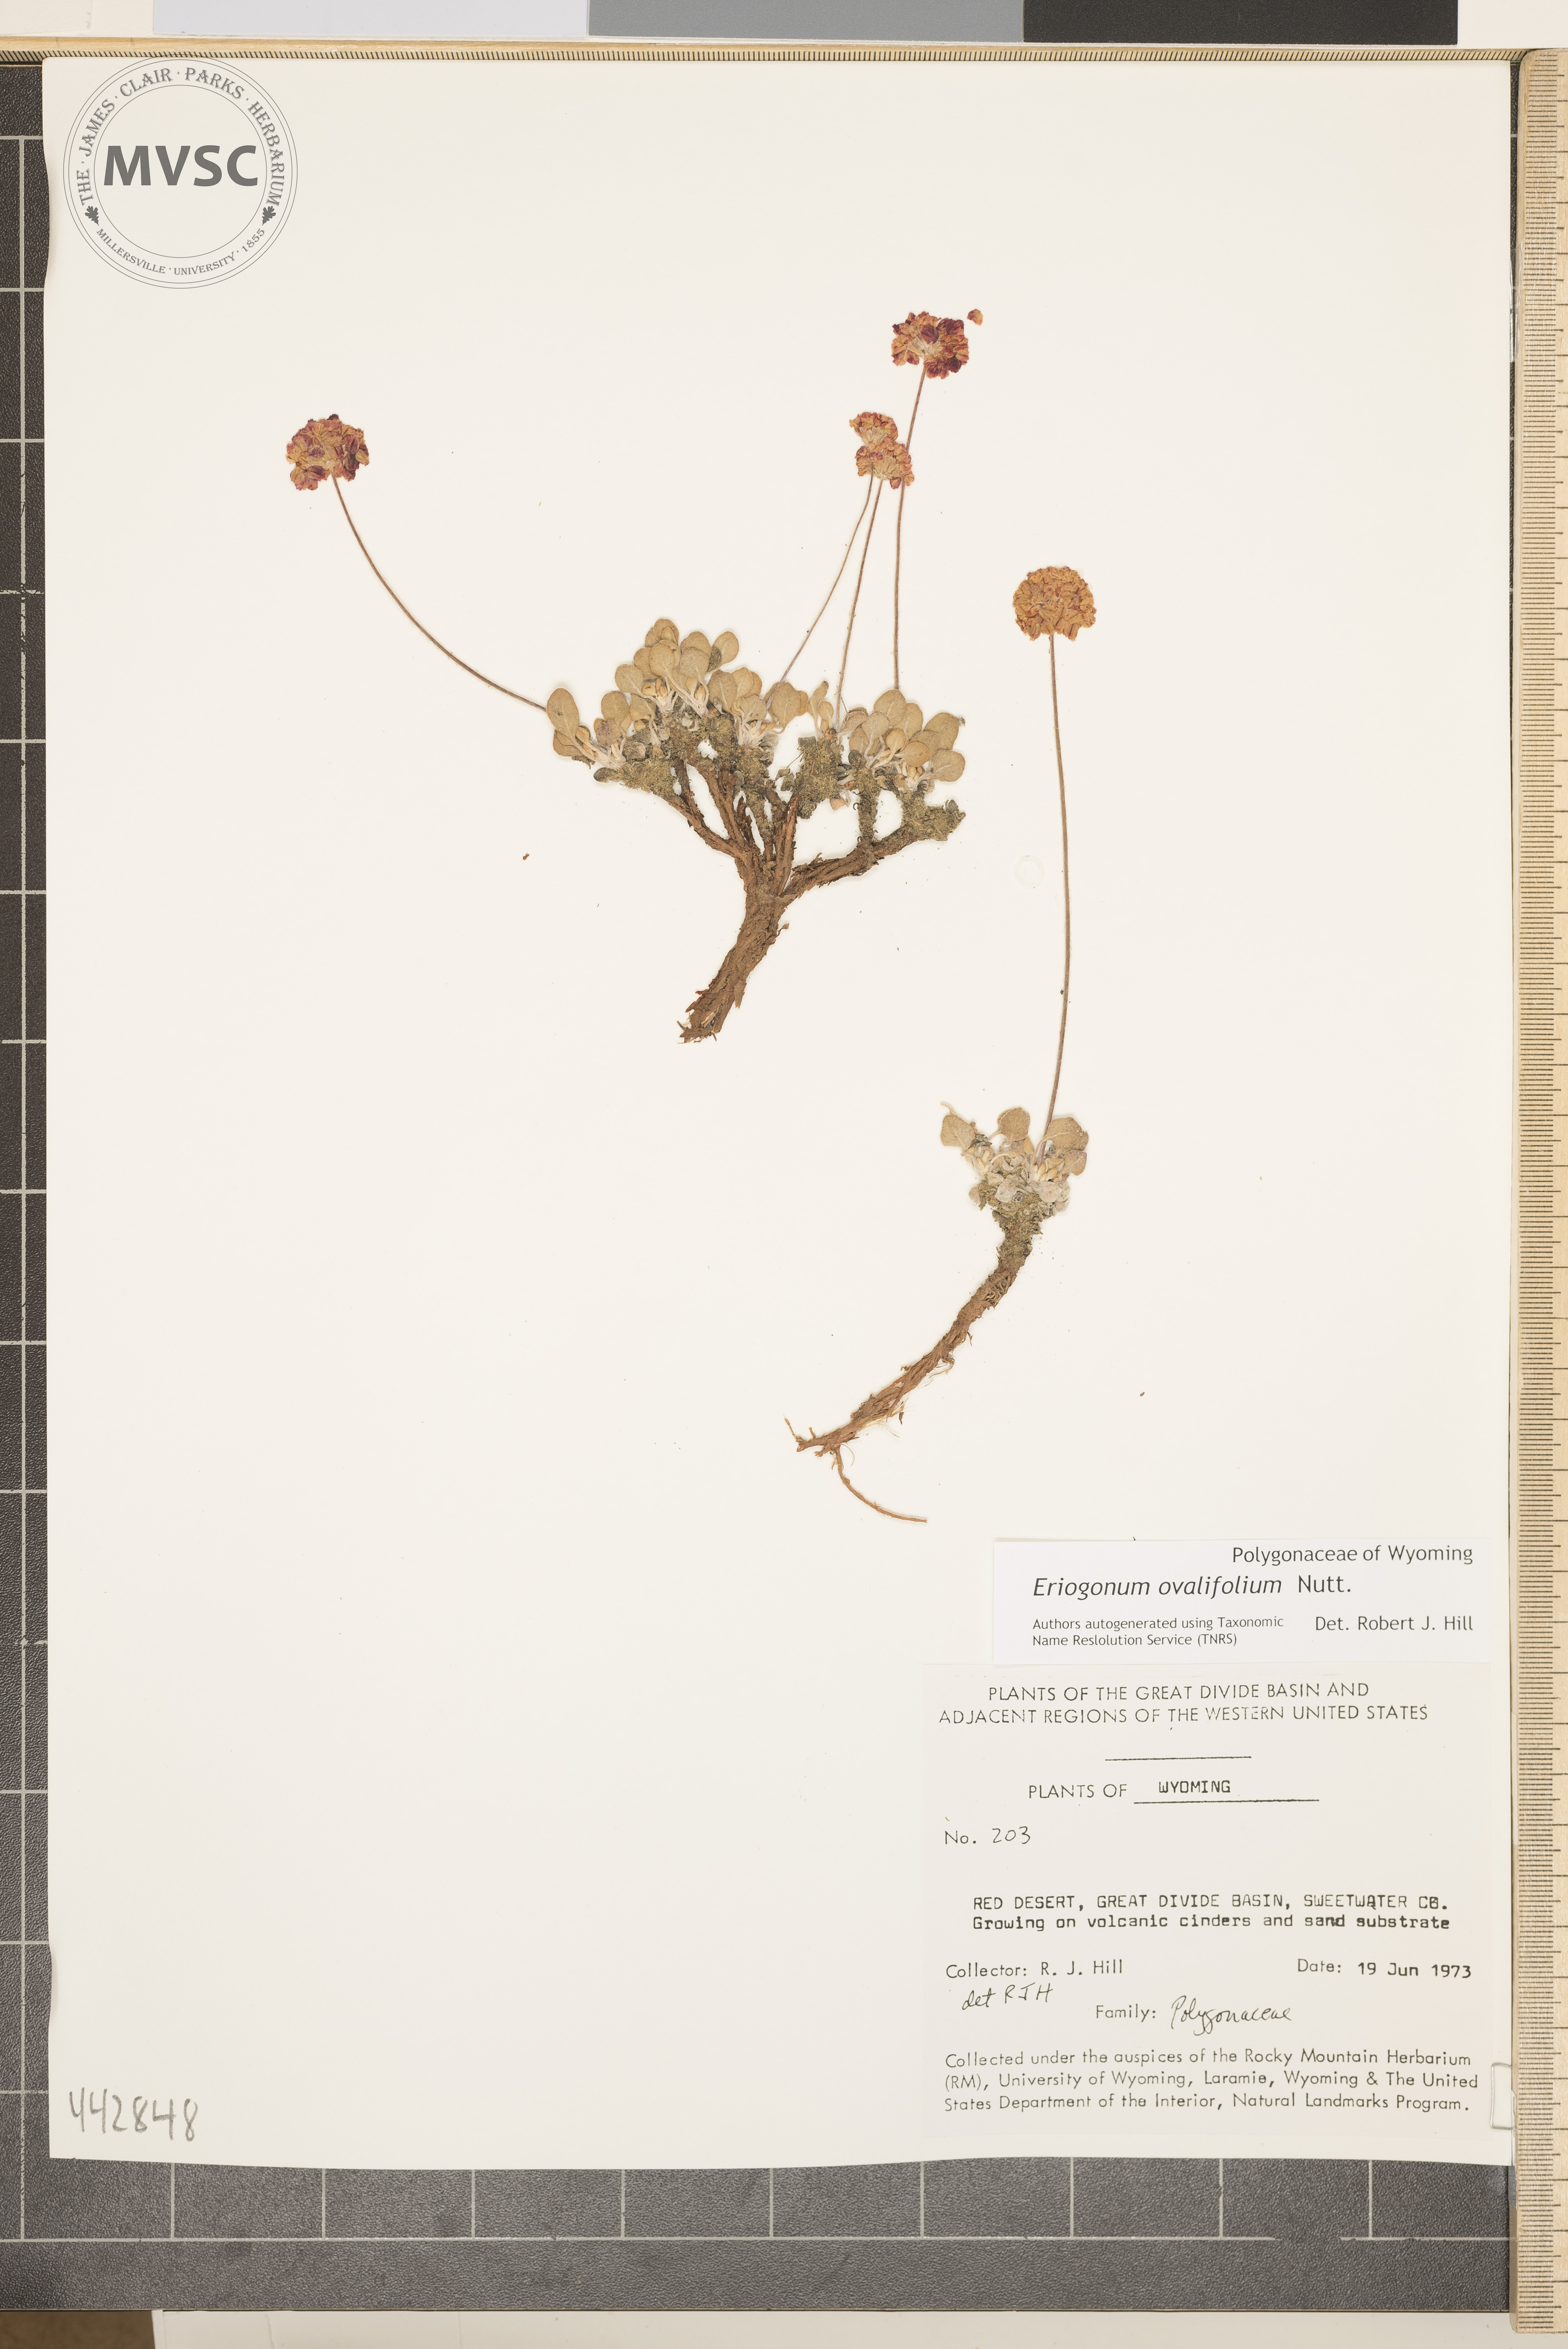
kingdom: Plantae
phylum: Tracheophyta
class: Magnoliopsida
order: Caryophyllales
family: Polygonaceae
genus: Eriogonum
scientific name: Eriogonum ovalifolium
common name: Cushion buckwheat
